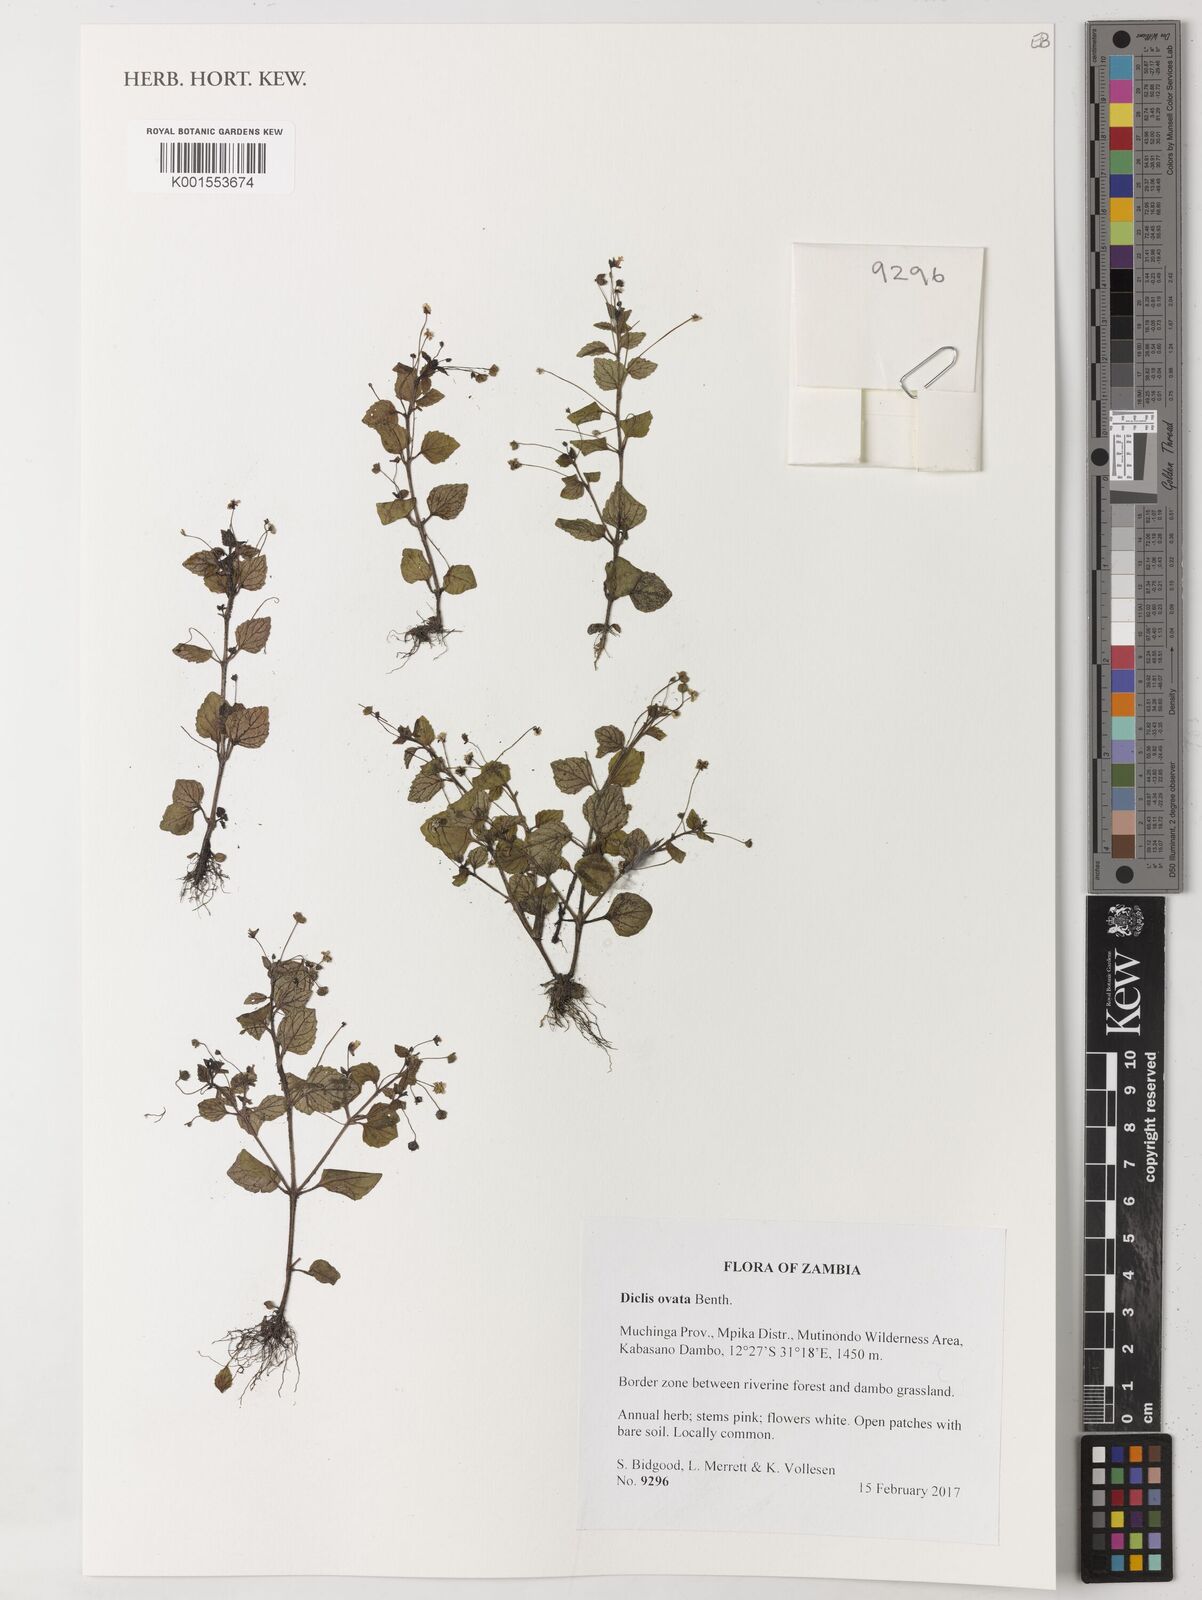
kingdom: Plantae
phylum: Tracheophyta
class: Magnoliopsida
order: Lamiales
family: Scrophulariaceae
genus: Diclis
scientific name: Diclis ovata
